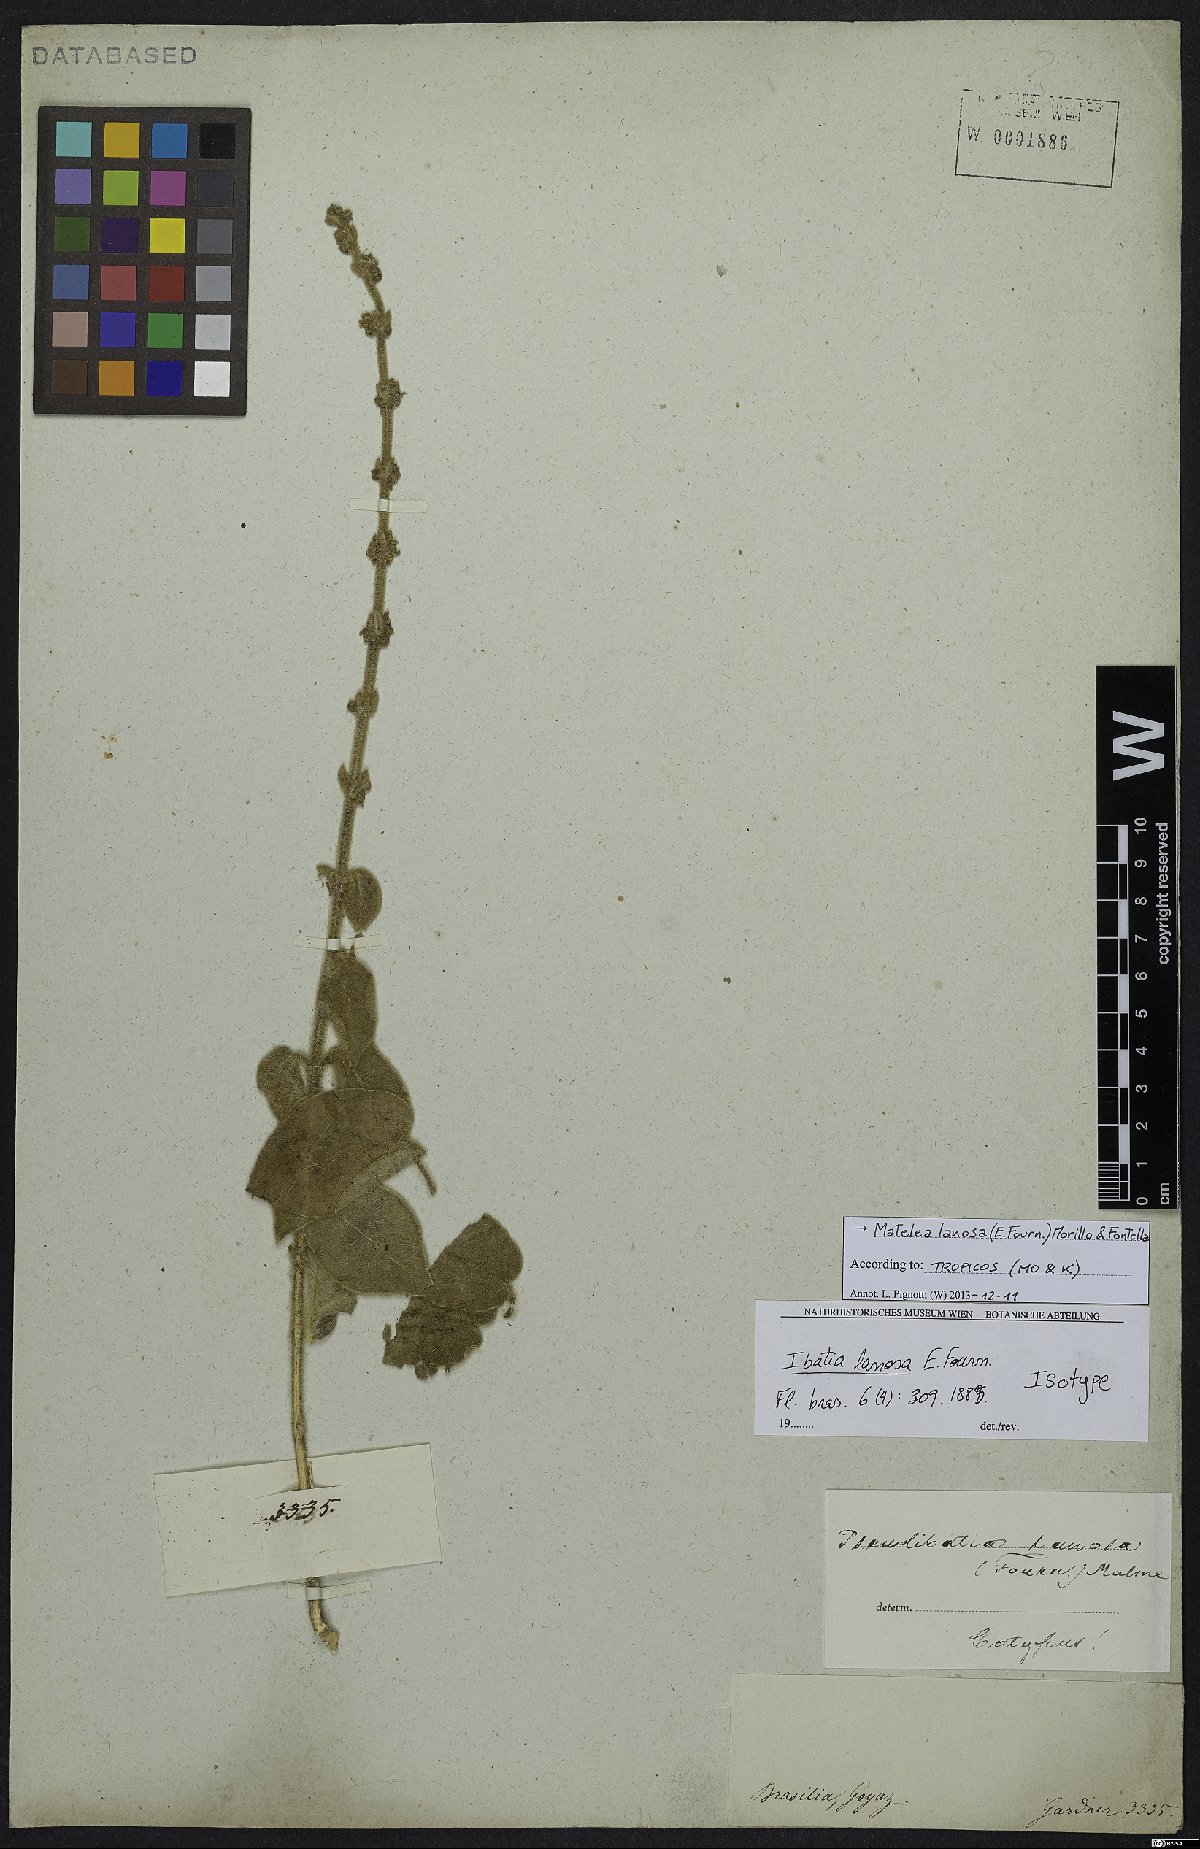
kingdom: Plantae
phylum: Tracheophyta
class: Magnoliopsida
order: Gentianales
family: Apocynaceae
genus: Ibatia
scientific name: Ibatia lanosa
